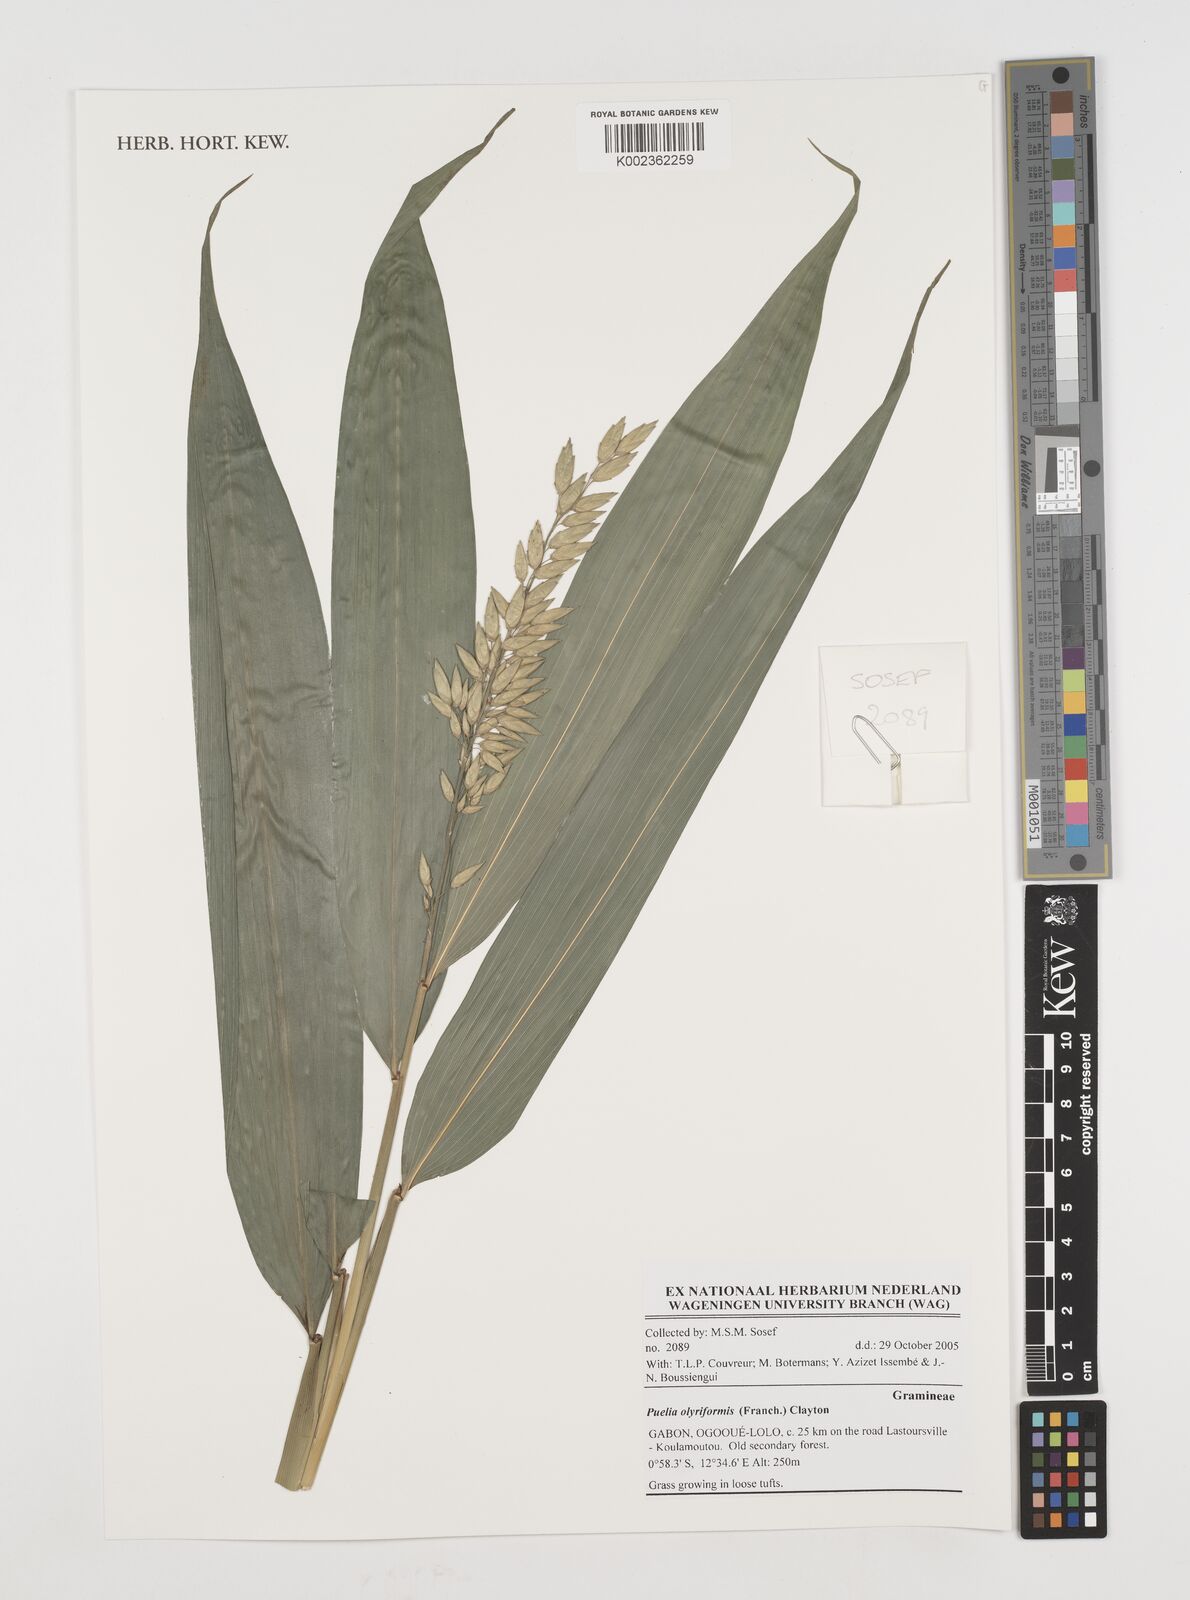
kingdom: Plantae
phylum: Tracheophyta
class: Liliopsida
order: Poales
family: Poaceae
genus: Puelia
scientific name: Puelia olyriformis
